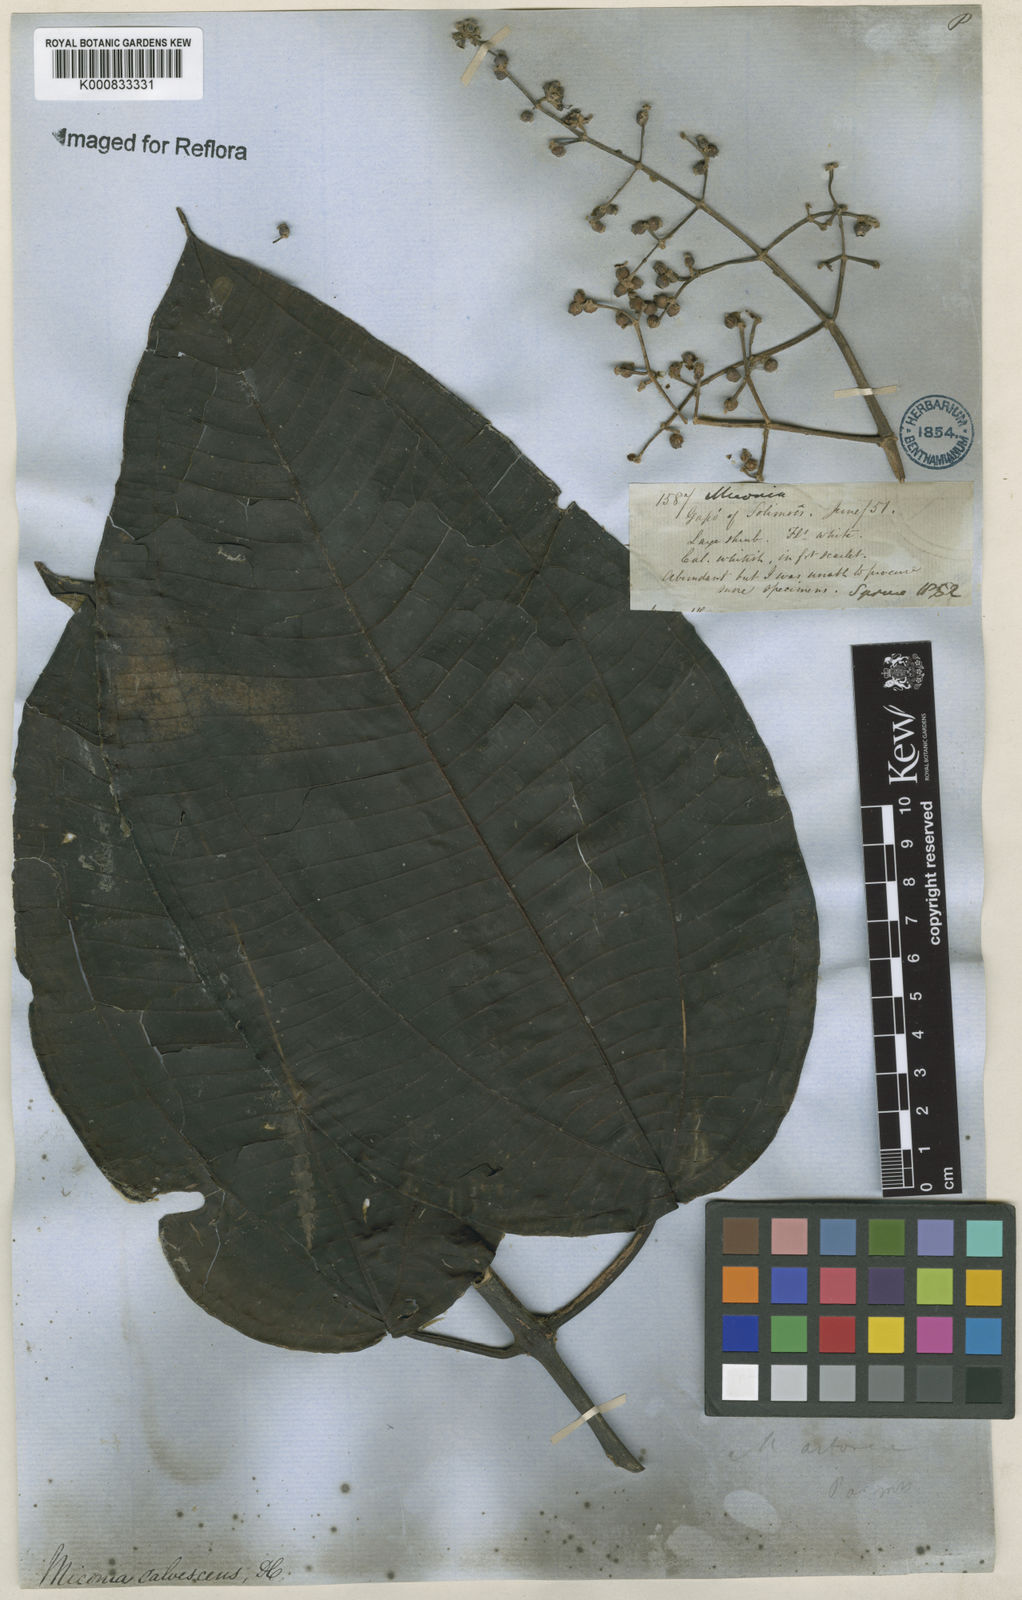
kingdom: Plantae
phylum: Tracheophyta
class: Magnoliopsida
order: Myrtales
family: Melastomataceae
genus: Miconia
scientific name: Miconia calvescens
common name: Purple plague
